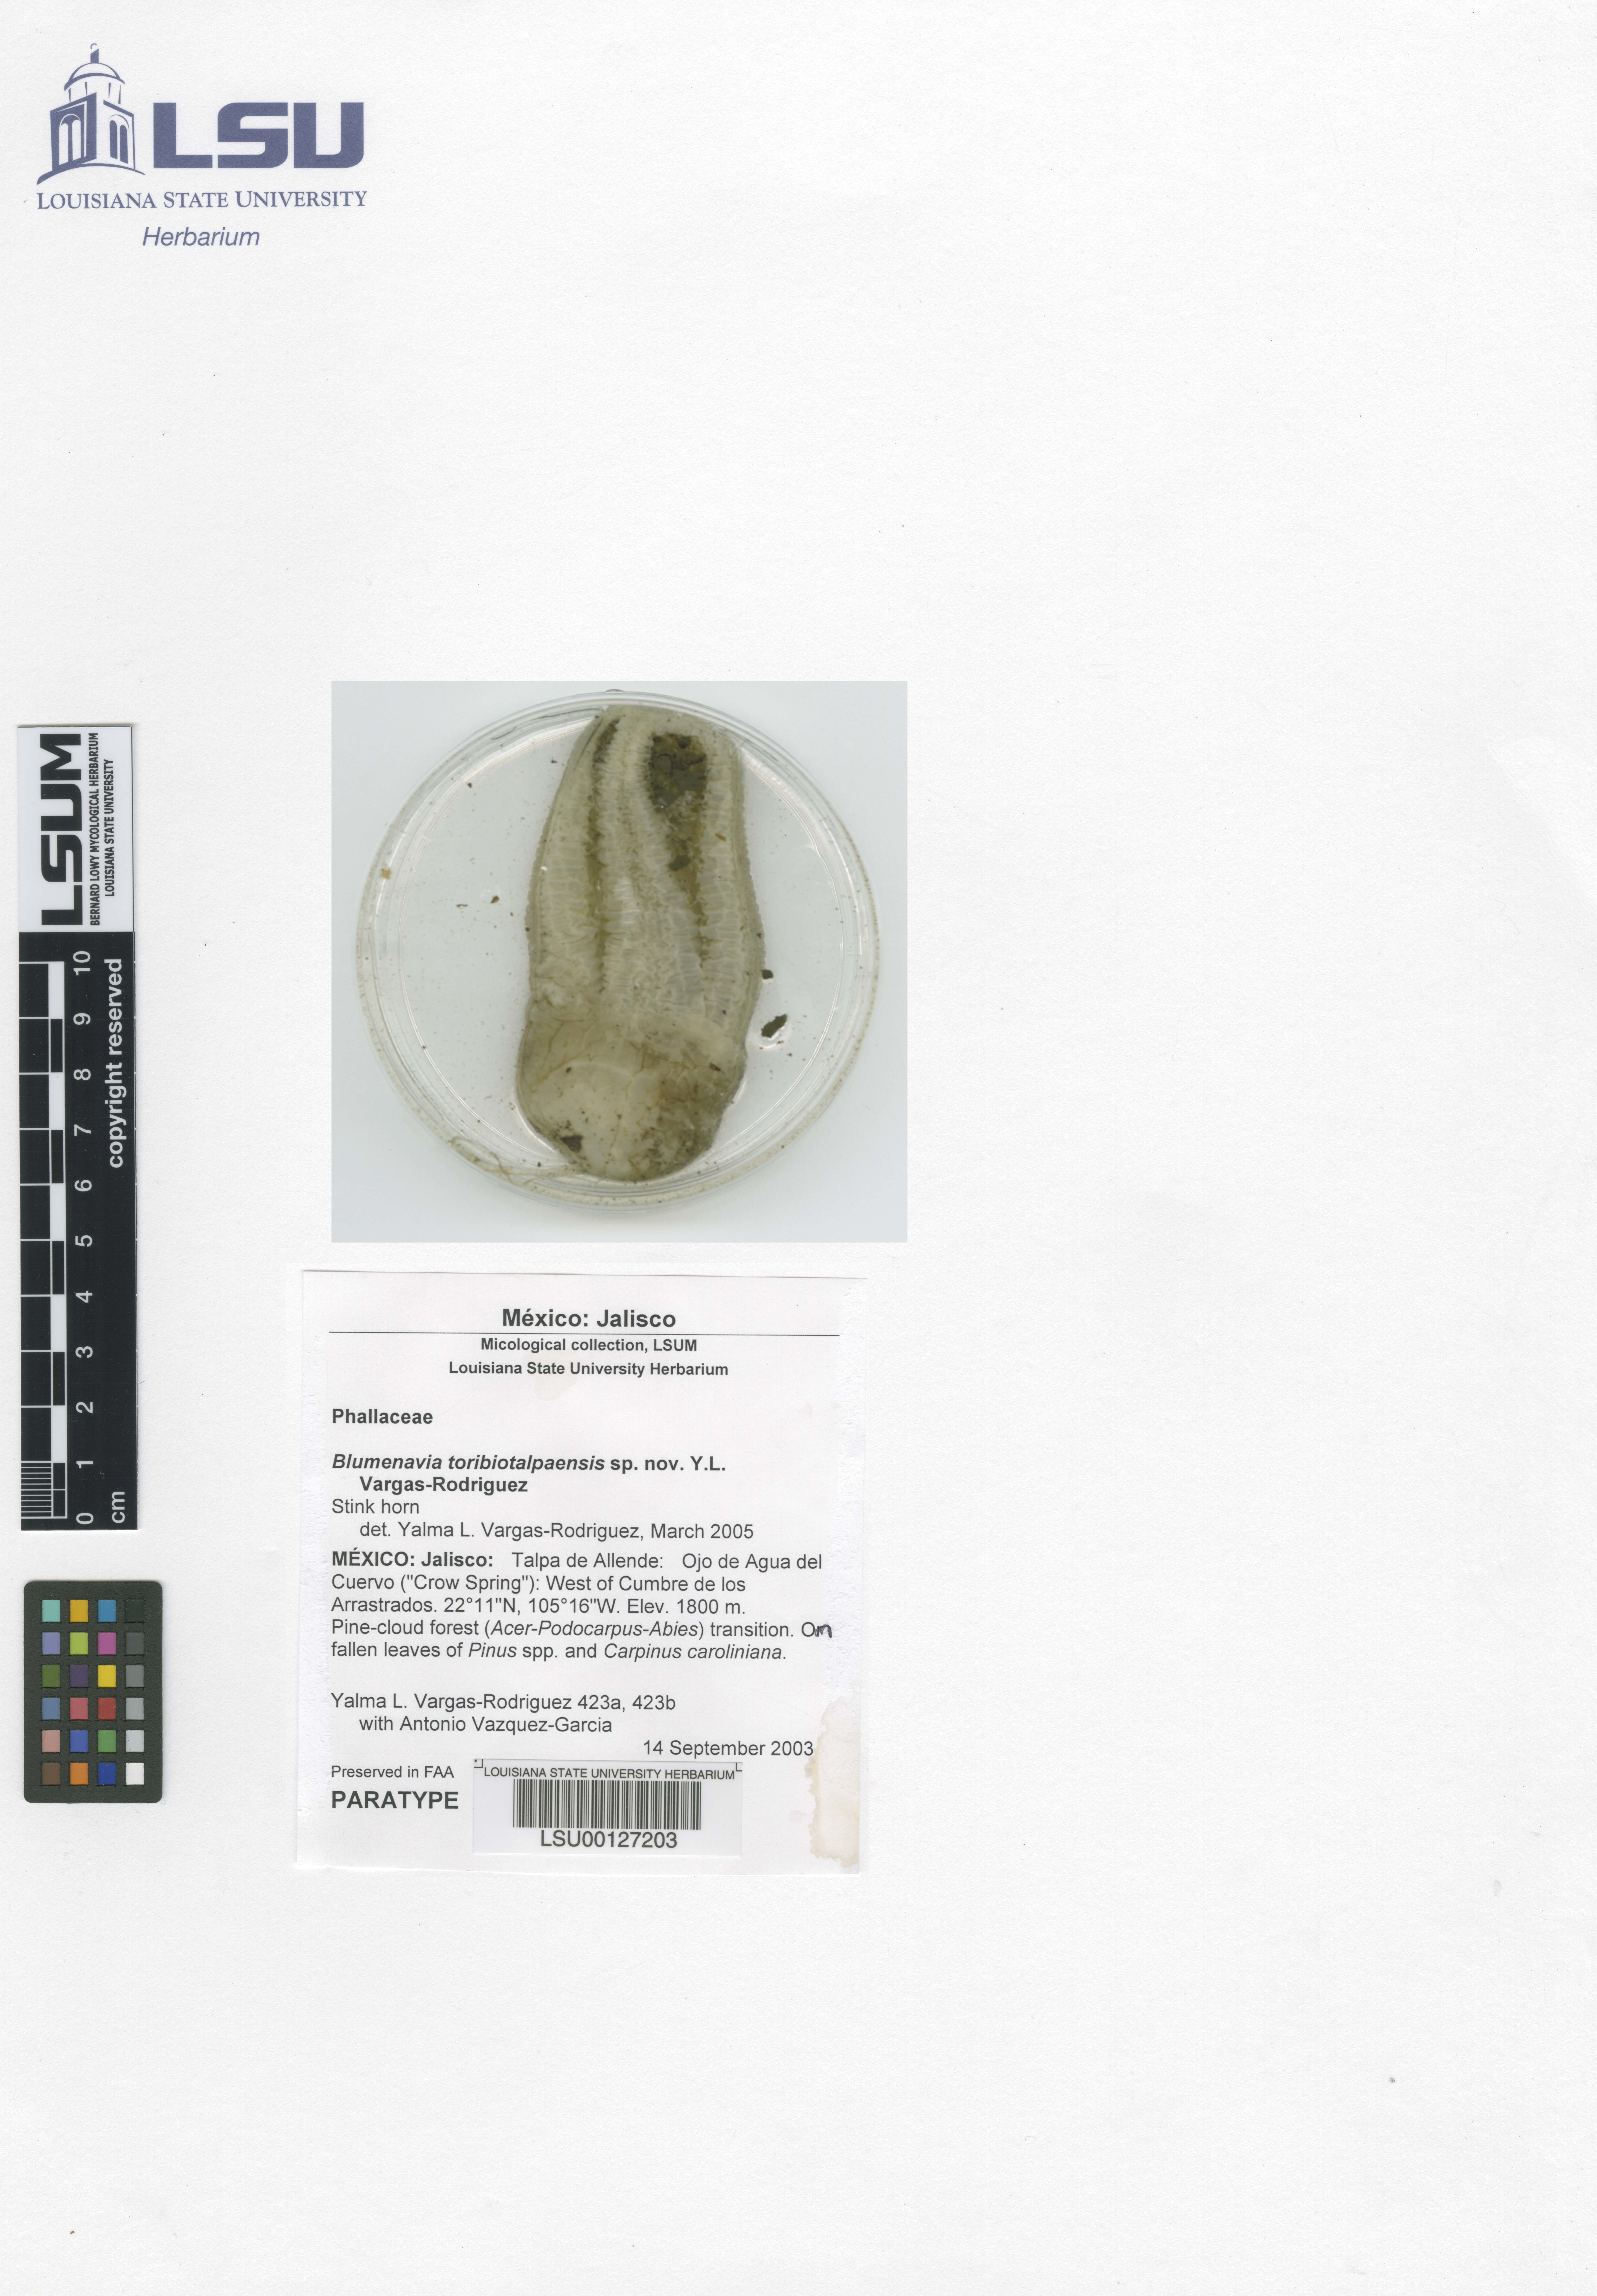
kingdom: Fungi
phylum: Basidiomycota
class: Agaricomycetes
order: Phallales
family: Phallaceae
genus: Blumenavia
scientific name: Blumenavia toribiotalpaensis
